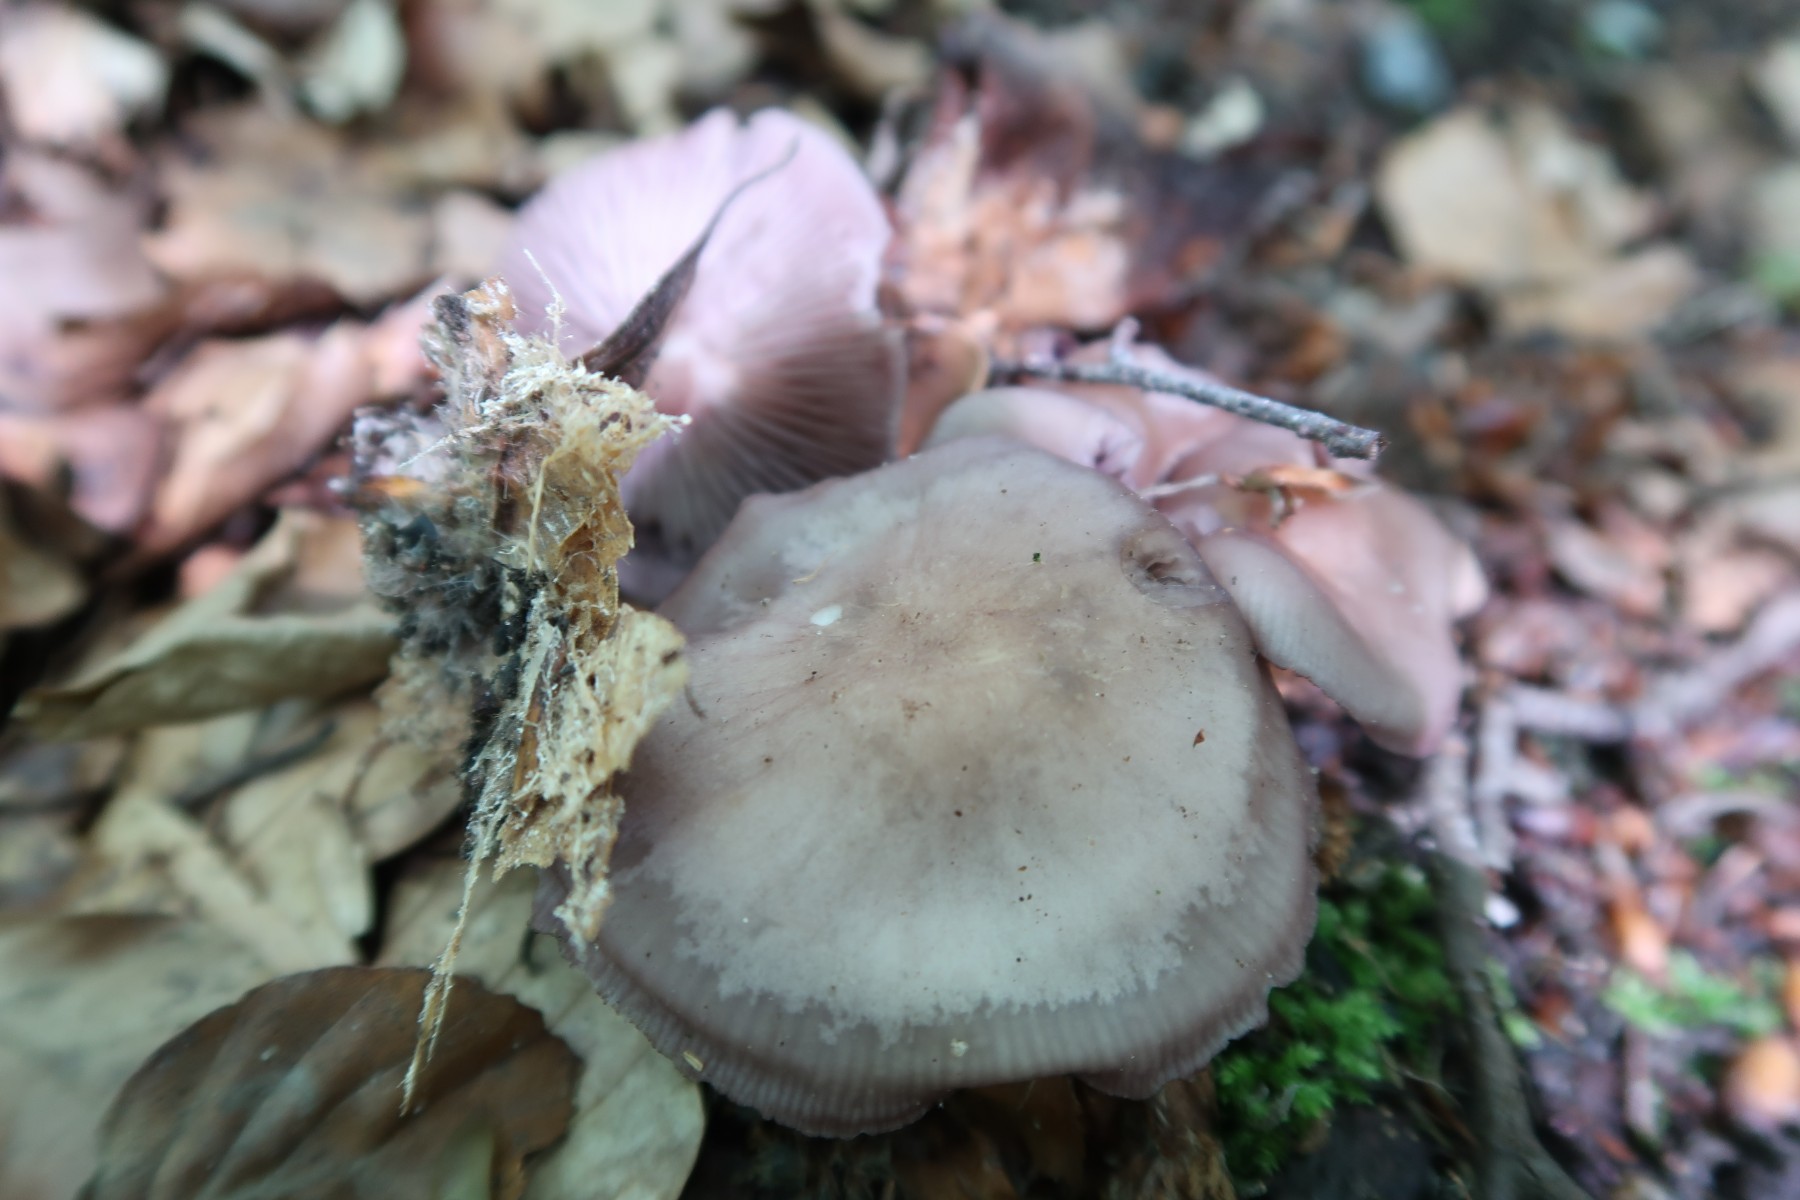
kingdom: Fungi
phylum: Basidiomycota
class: Agaricomycetes
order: Agaricales
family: Mycenaceae
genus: Mycena
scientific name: Mycena pelianthina
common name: mørkbladet huesvamp
